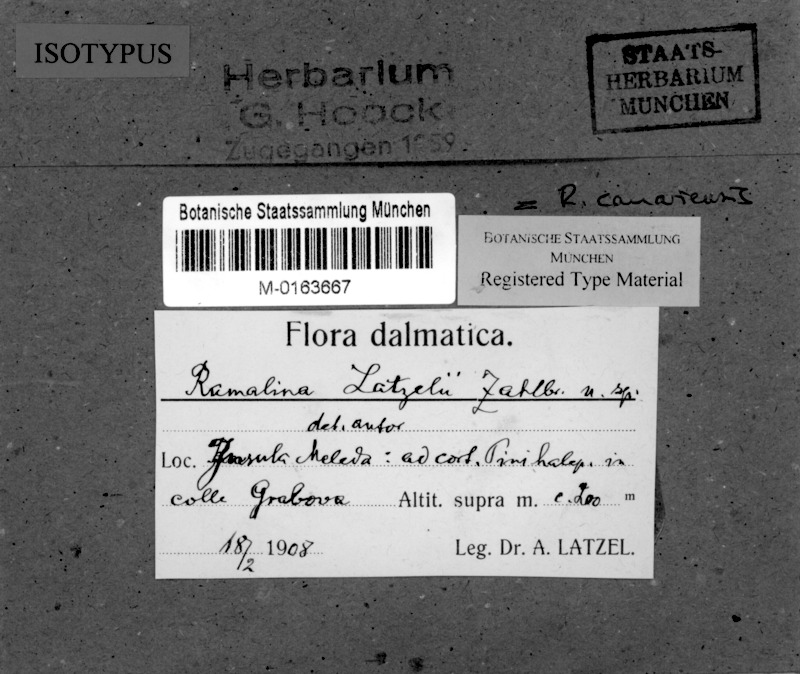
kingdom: Fungi
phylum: Ascomycota
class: Lecanoromycetes
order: Lecanorales
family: Ramalinaceae
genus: Ramalina
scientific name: Ramalina canariensis
